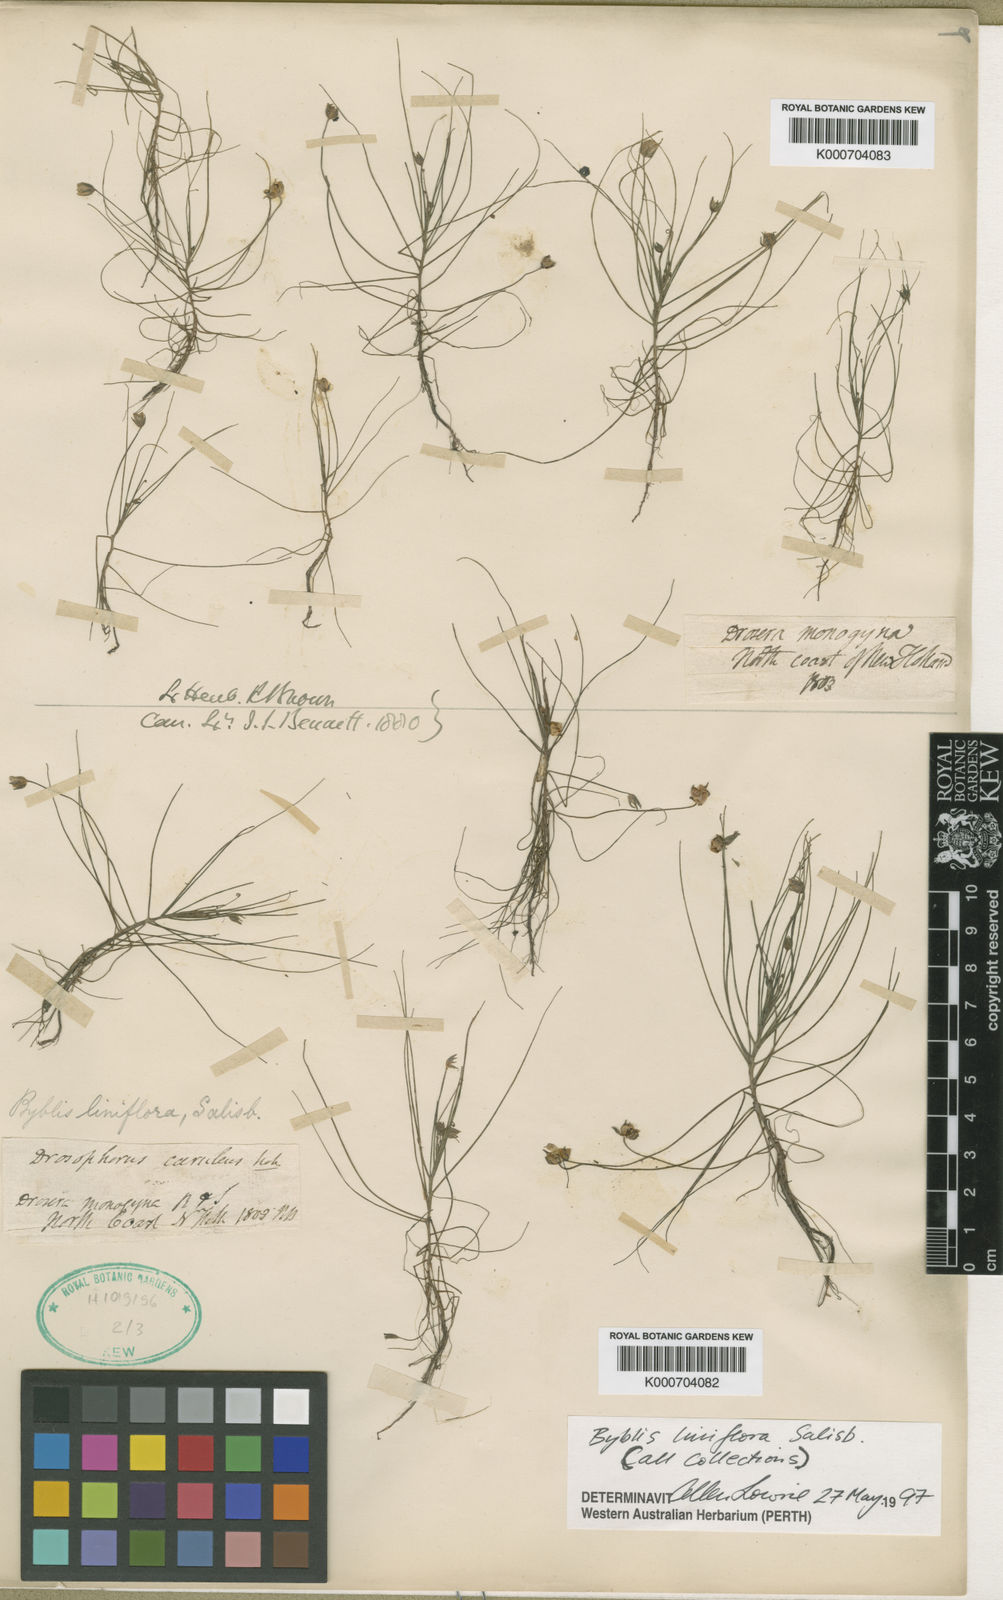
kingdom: Plantae
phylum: Tracheophyta
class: Magnoliopsida
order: Lamiales
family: Byblidaceae
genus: Byblis
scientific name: Byblis liniflora
